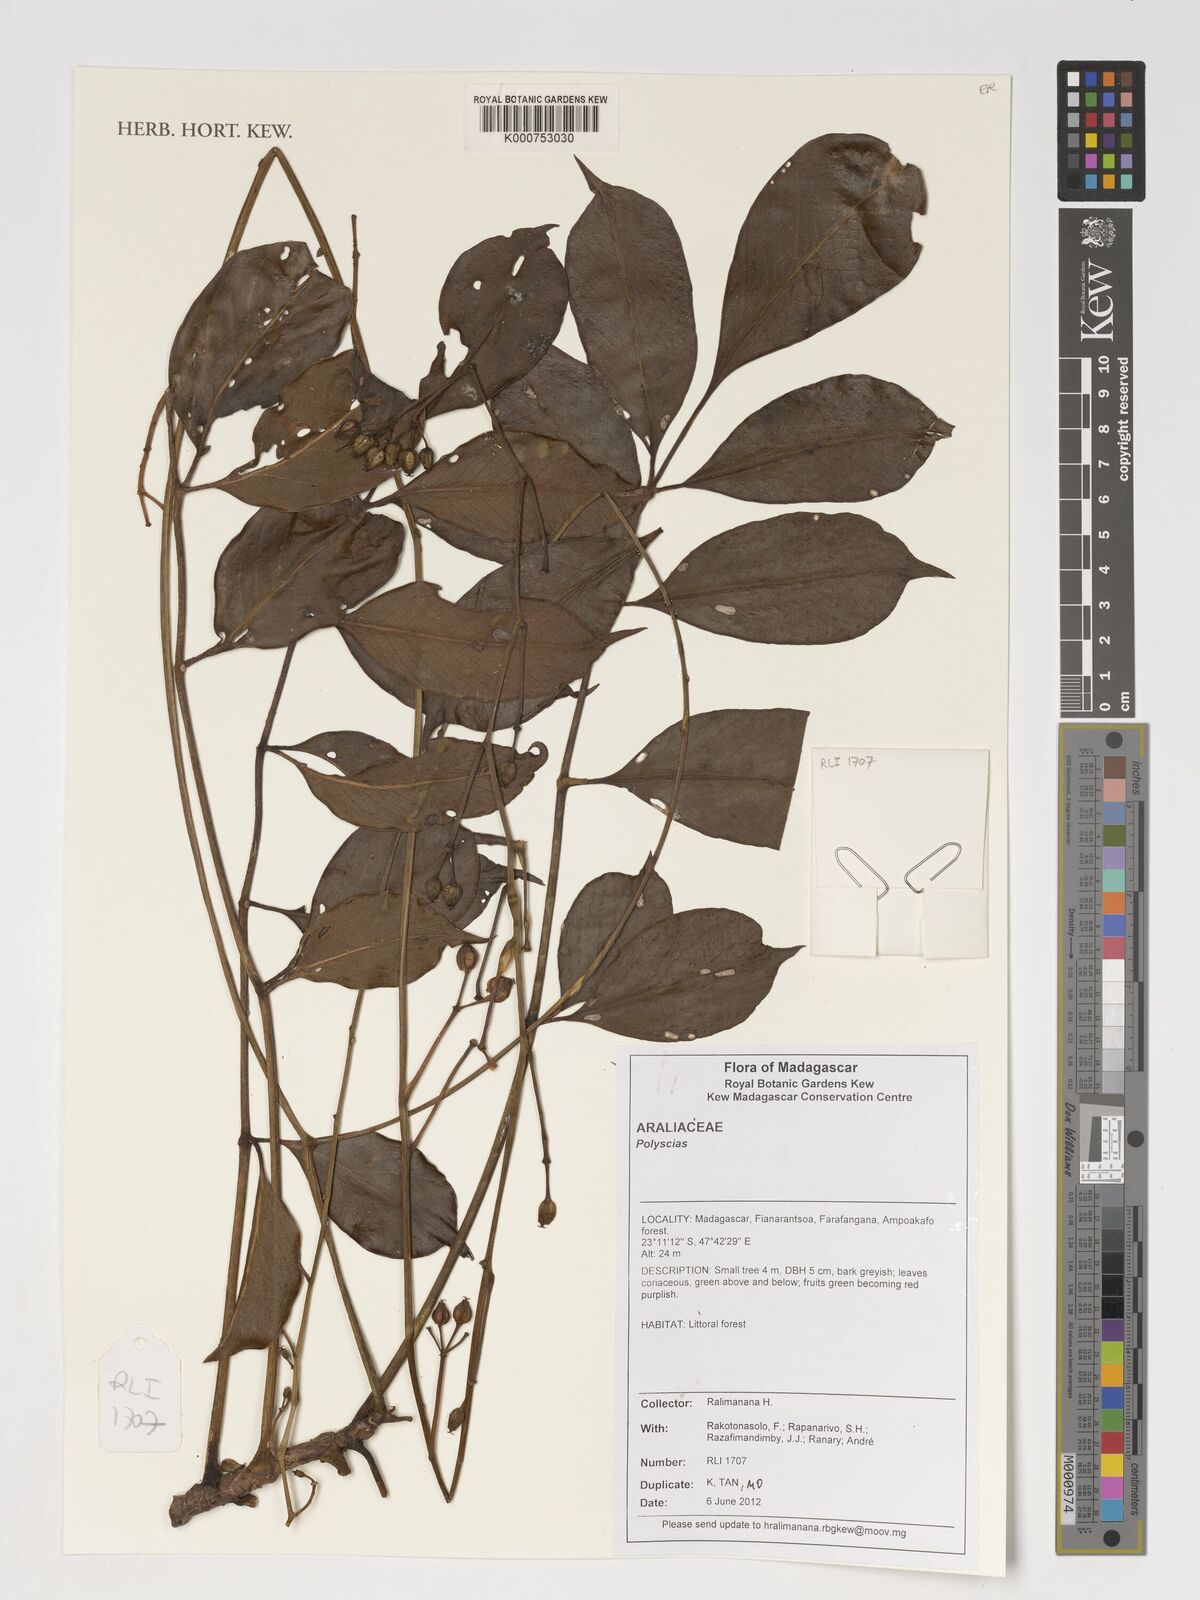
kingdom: Plantae
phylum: Tracheophyta
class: Magnoliopsida
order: Apiales
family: Araliaceae
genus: Polyscias
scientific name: Polyscias
